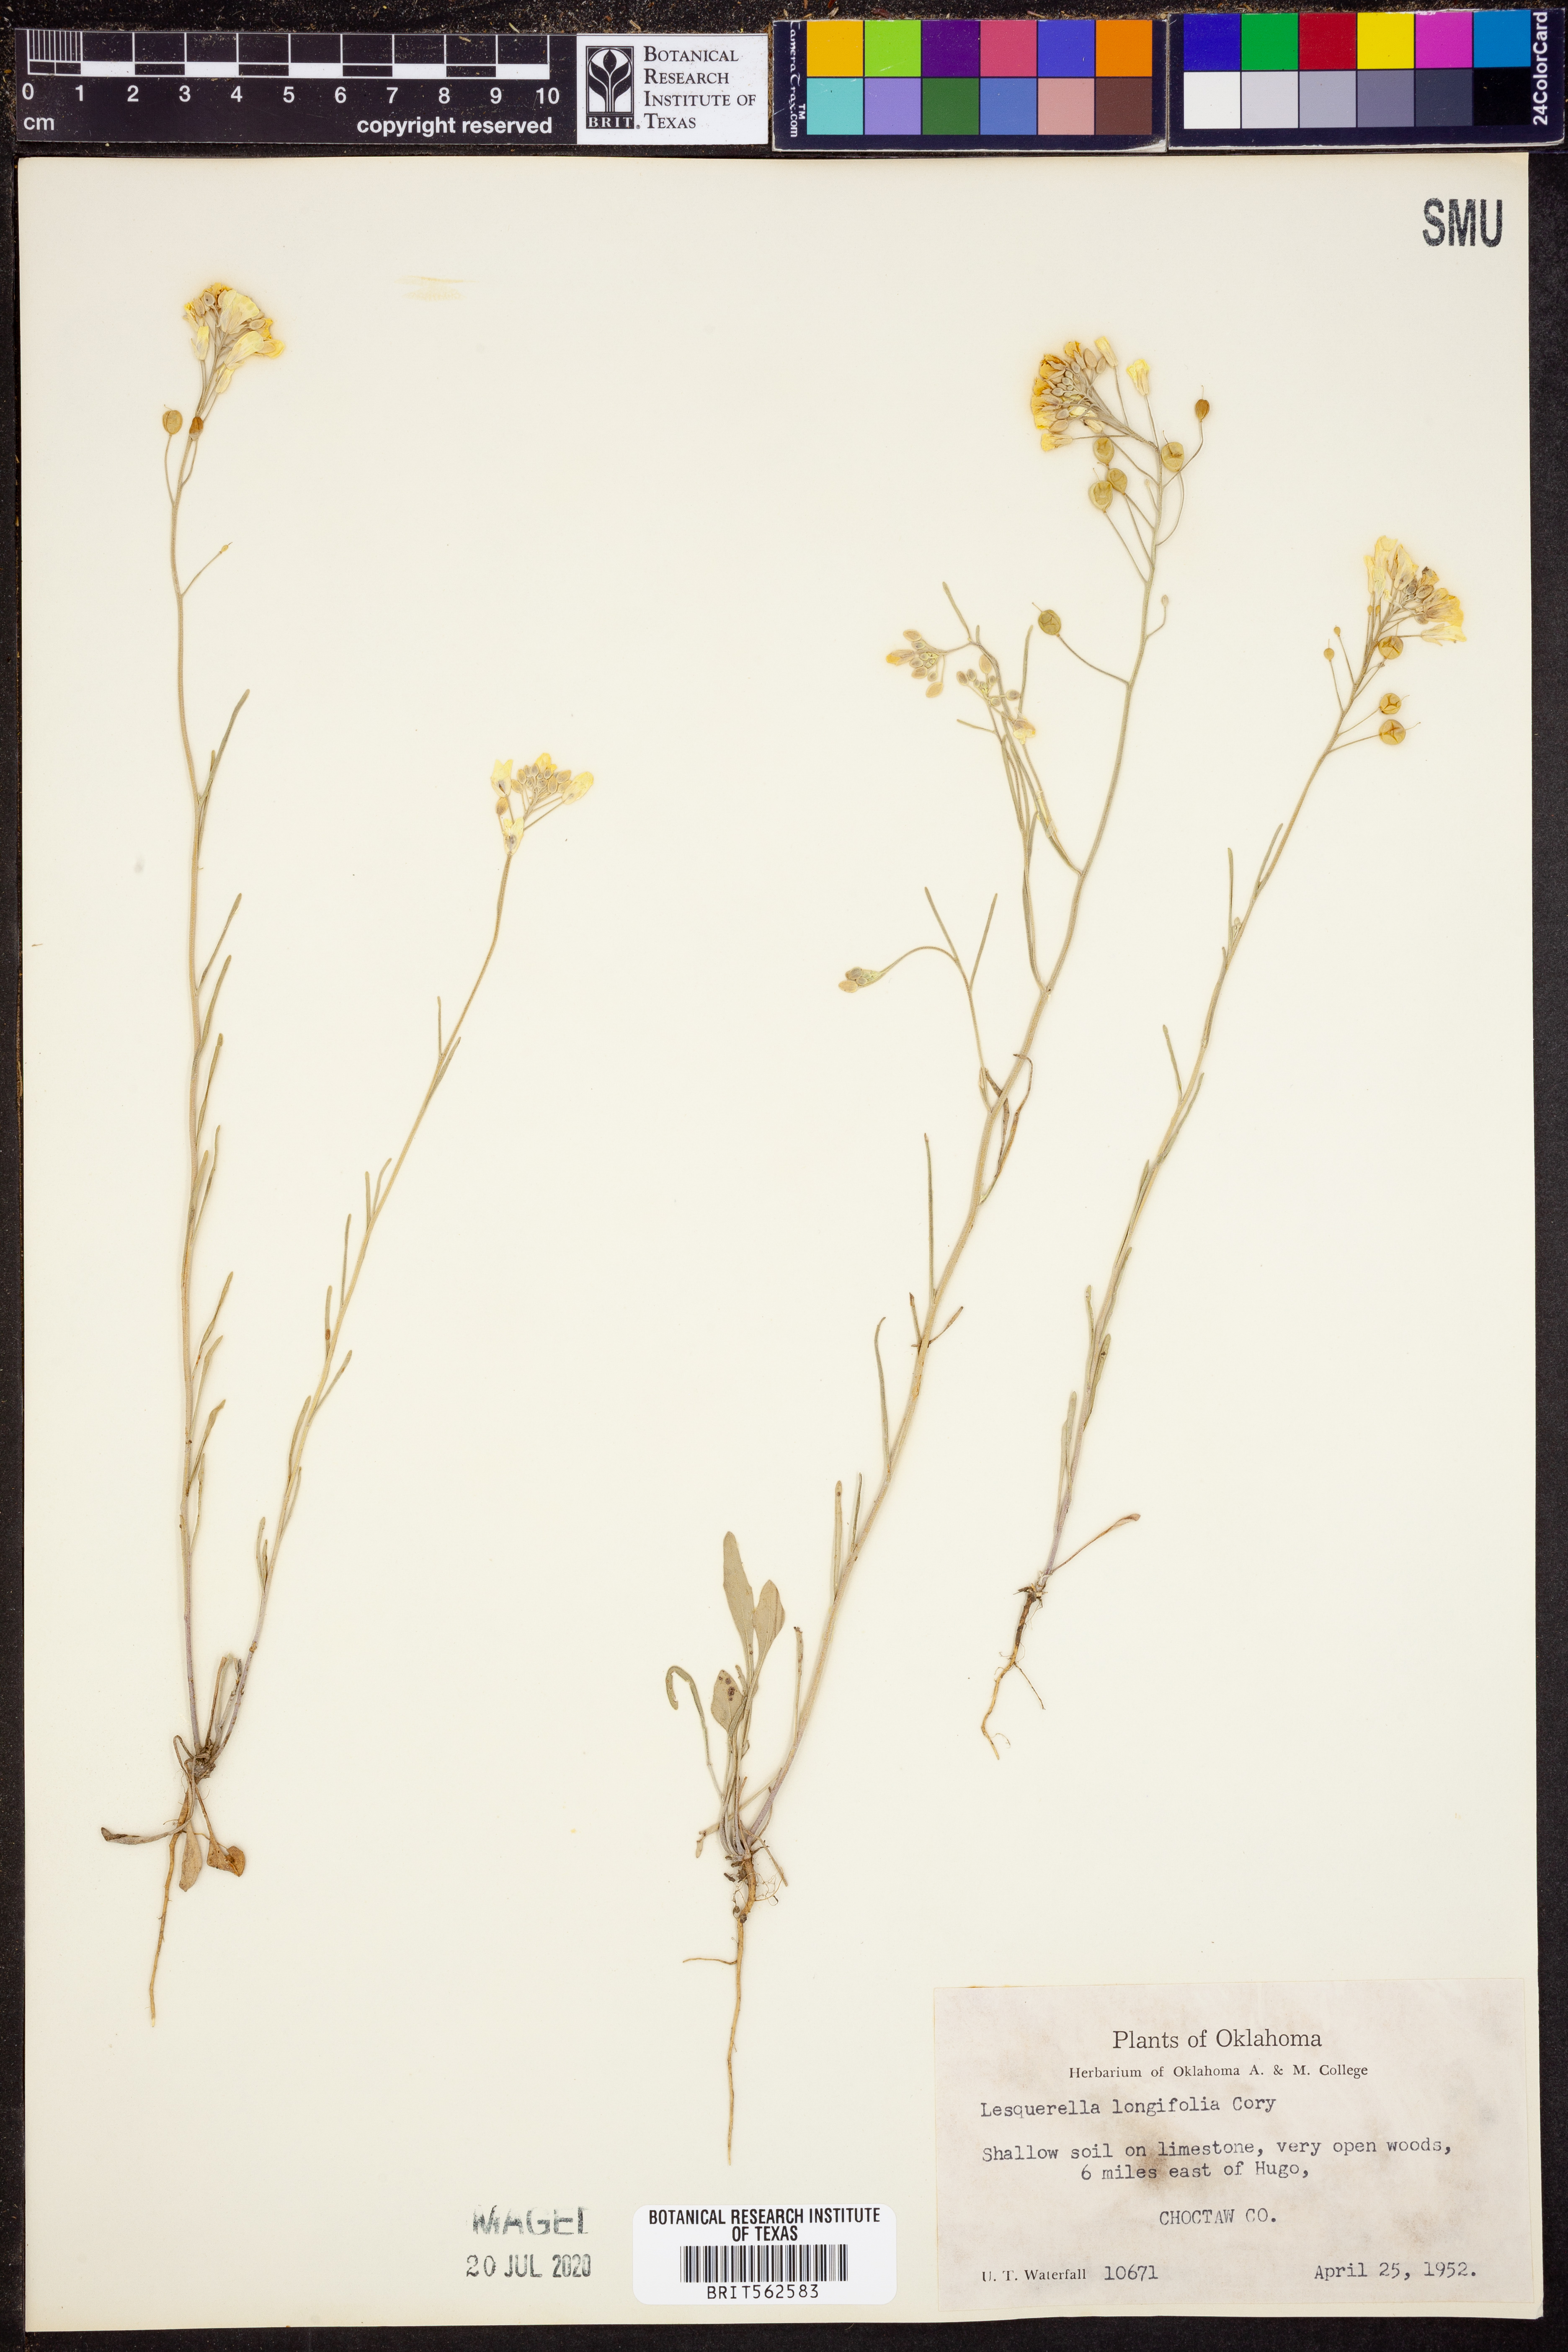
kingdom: Plantae
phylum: Tracheophyta
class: Magnoliopsida
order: Brassicales
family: Brassicaceae
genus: Physaria
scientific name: Physaria angustifolia
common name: Threadleaf bladderpod
